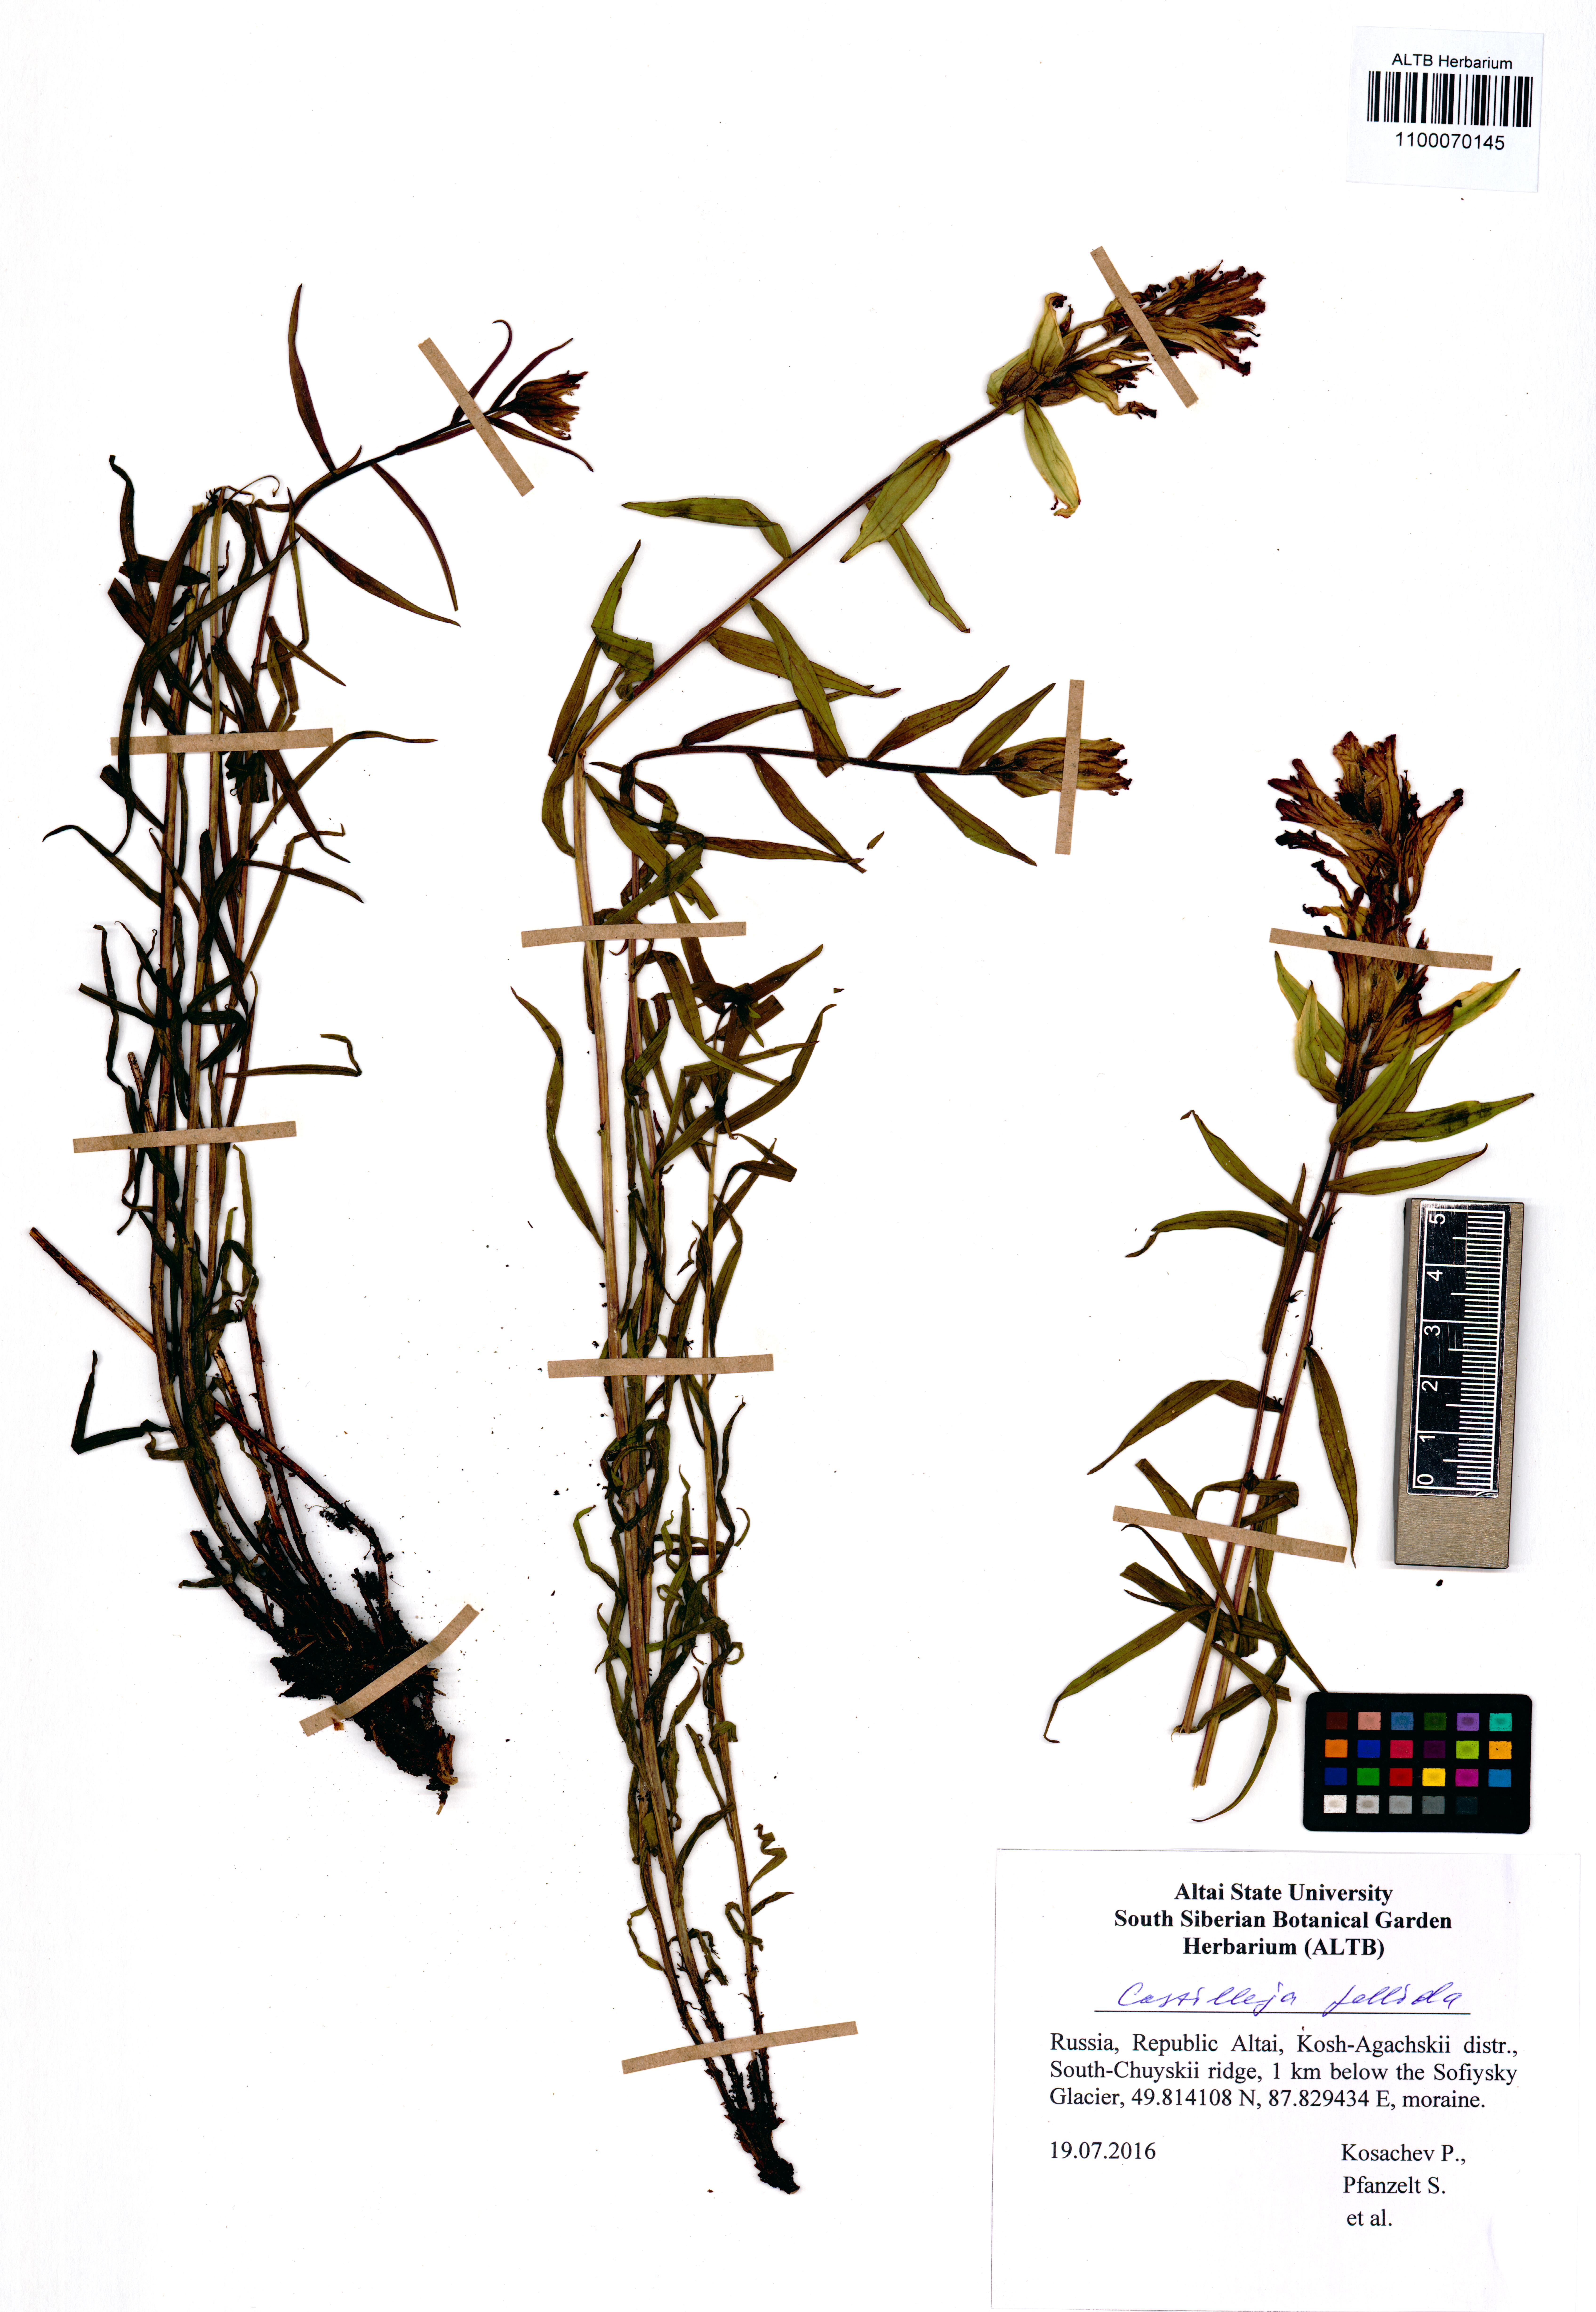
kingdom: Plantae
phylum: Tracheophyta
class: Magnoliopsida
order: Lamiales
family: Orobanchaceae
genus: Castilleja
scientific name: Castilleja pallida
